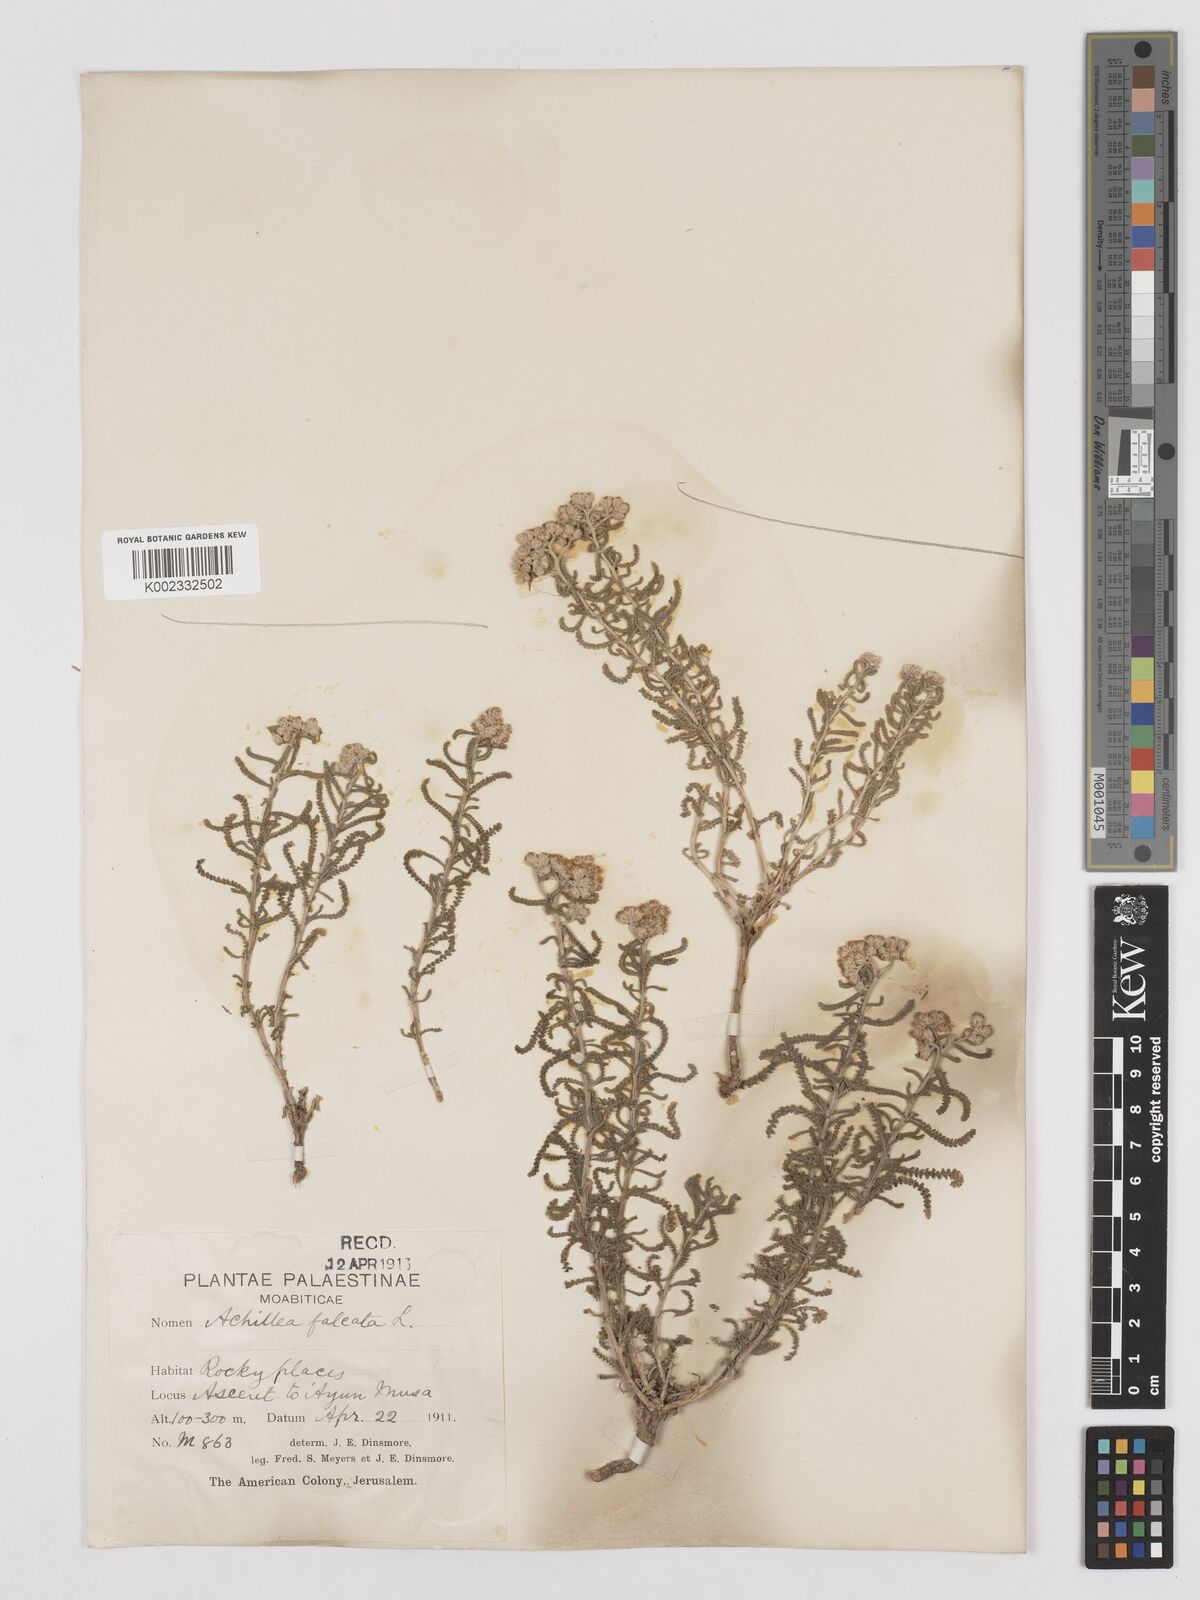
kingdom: Plantae
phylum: Tracheophyta
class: Magnoliopsida
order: Asterales
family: Asteraceae
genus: Achillea
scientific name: Achillea tenuifolia
